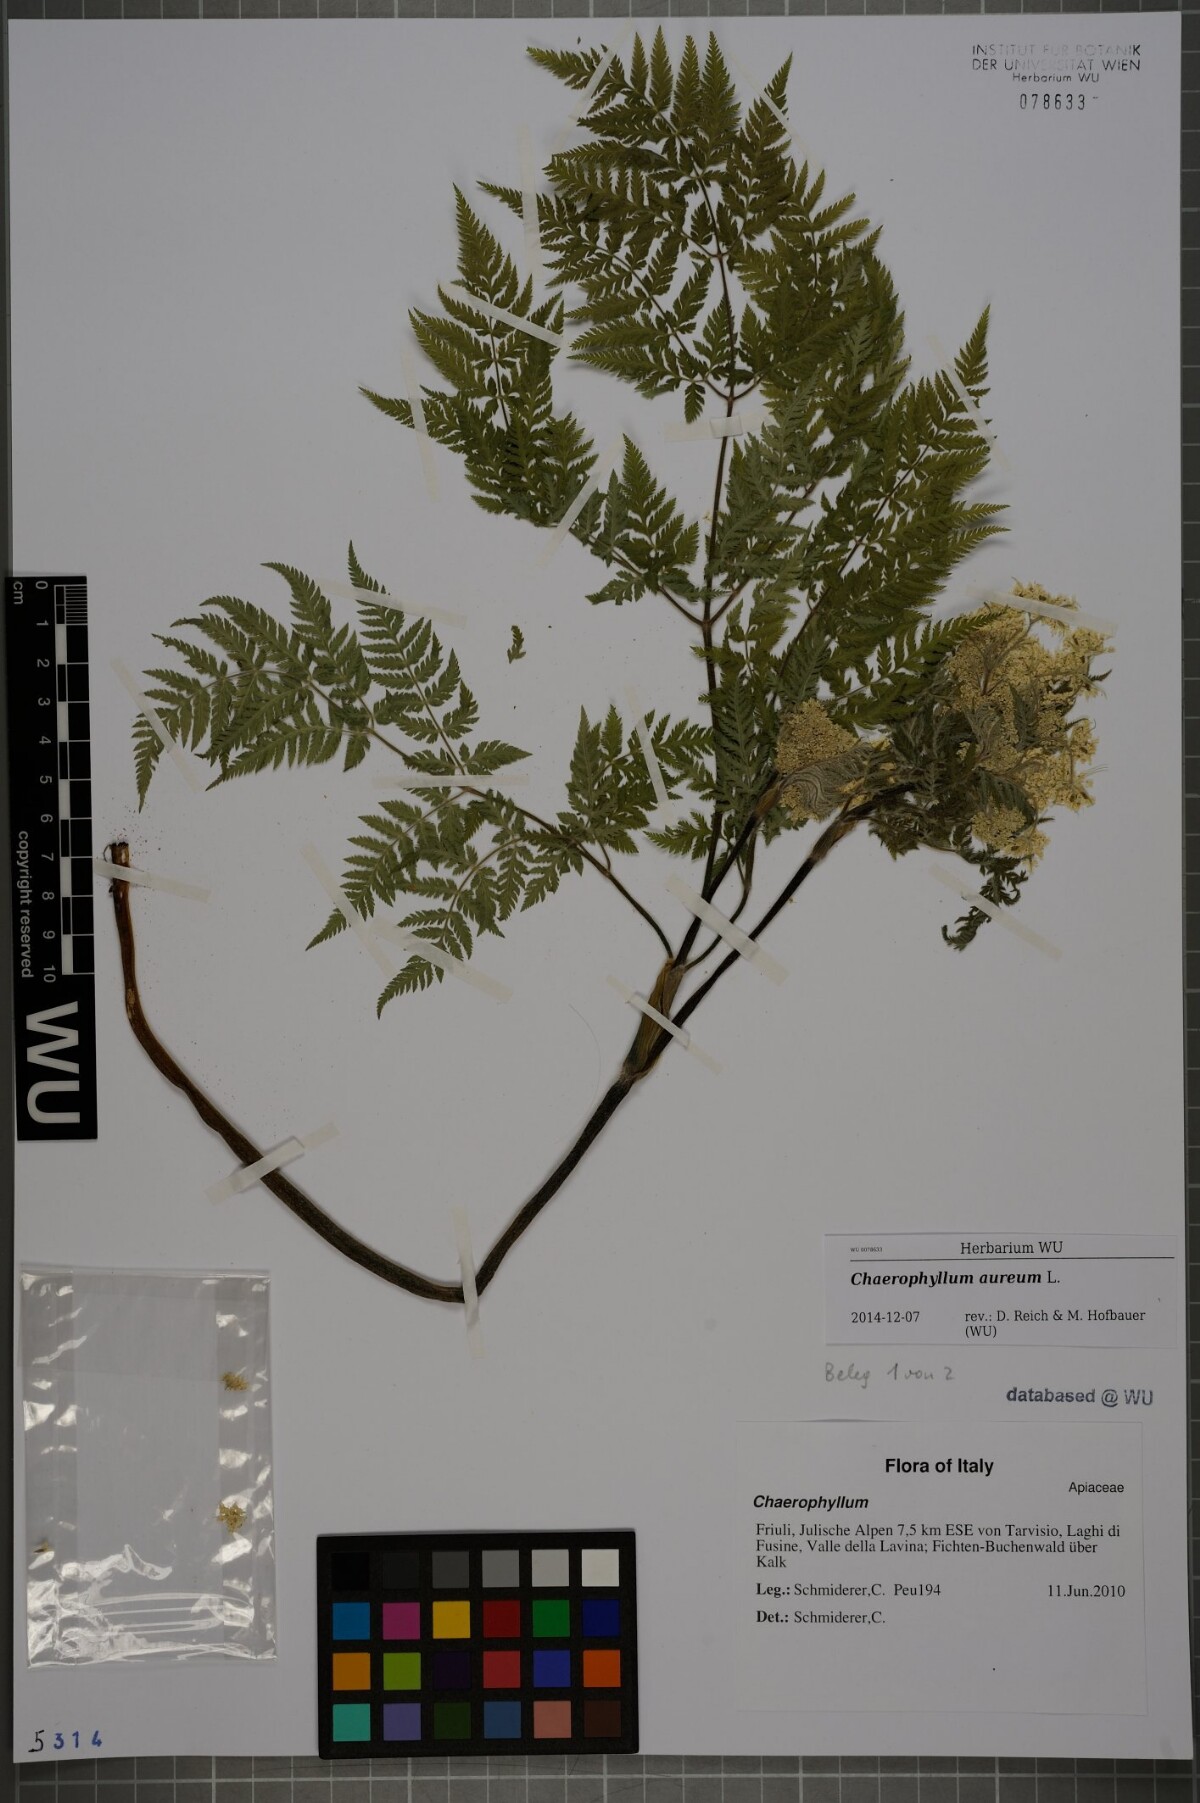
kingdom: Plantae
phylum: Tracheophyta
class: Magnoliopsida
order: Apiales
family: Apiaceae
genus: Chaerophyllum
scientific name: Chaerophyllum aureum
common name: Golden chervil
